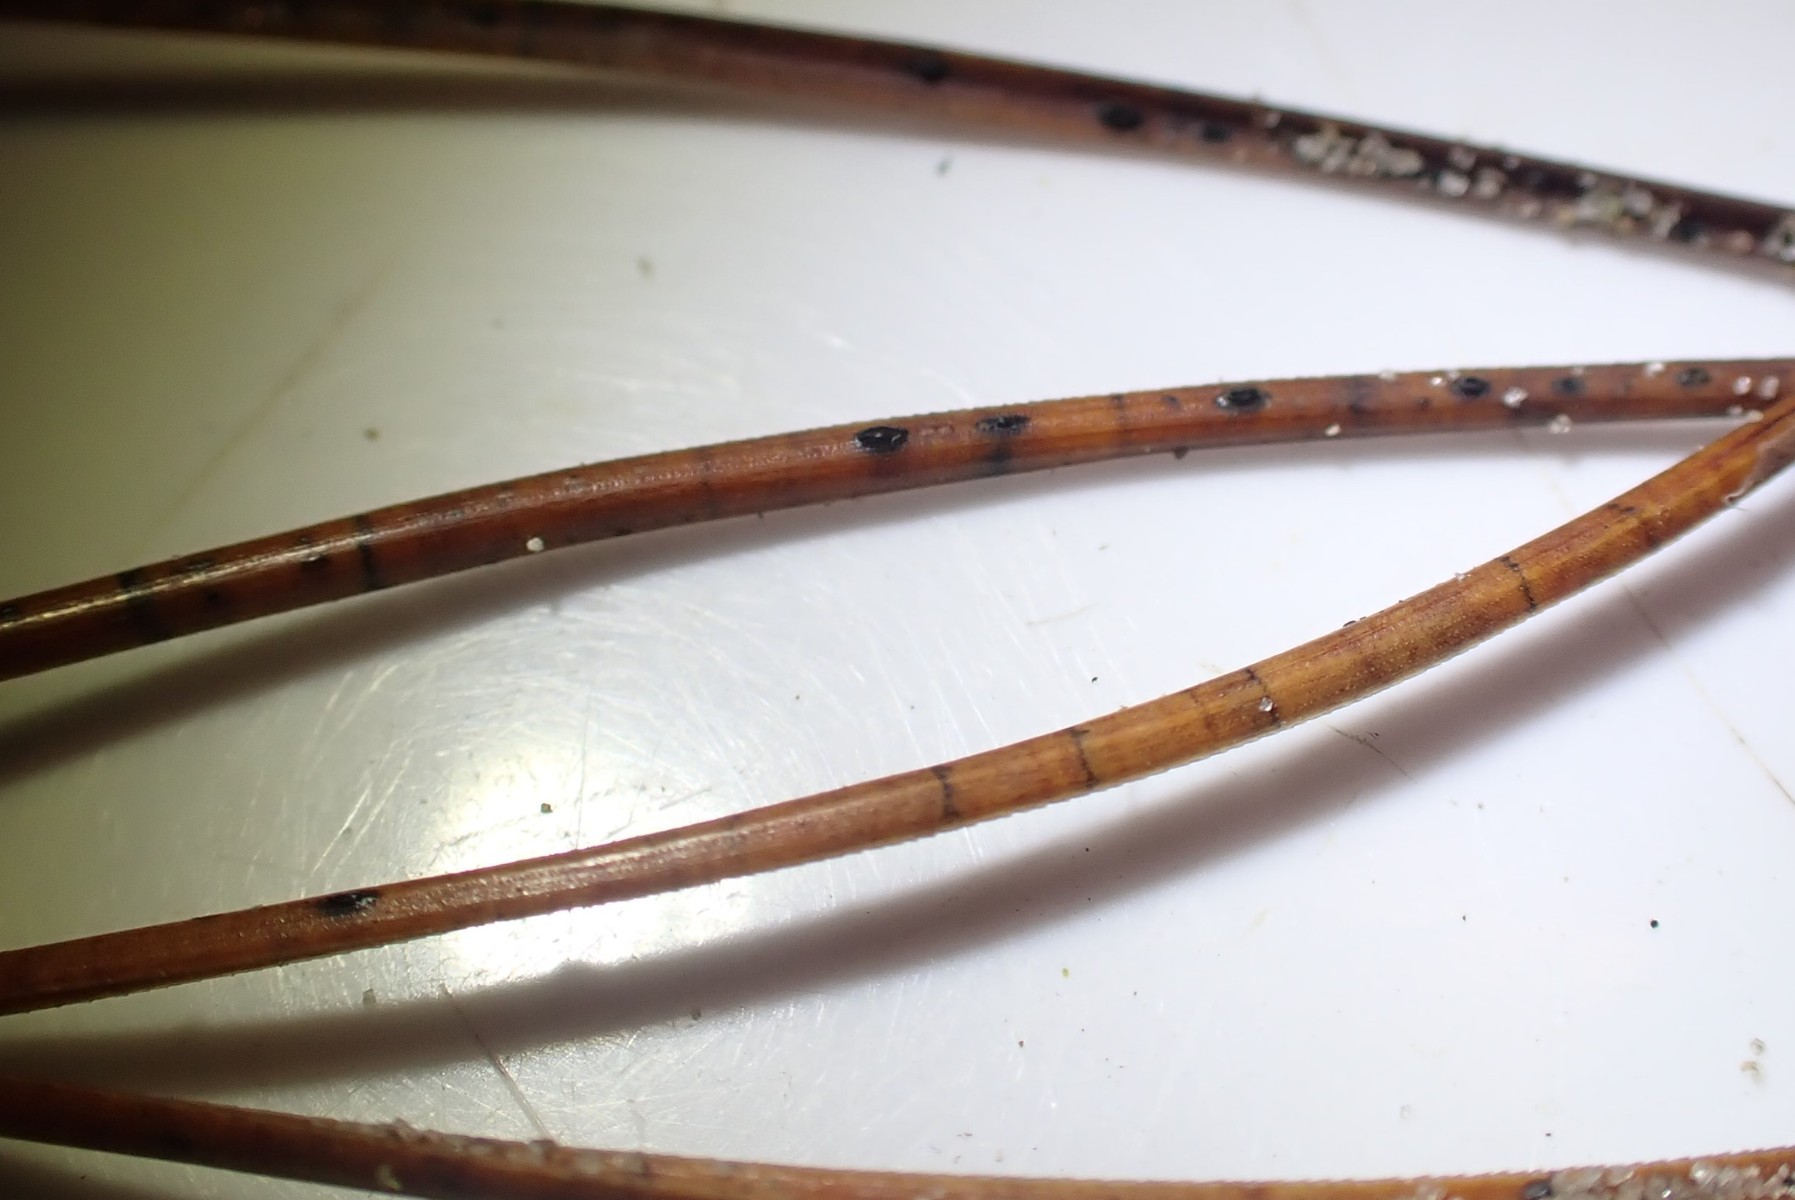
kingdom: Fungi
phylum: Ascomycota
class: Leotiomycetes
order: Rhytismatales
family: Rhytismataceae
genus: Lophodermium
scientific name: Lophodermium pinastri
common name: fyrre-fureplet
